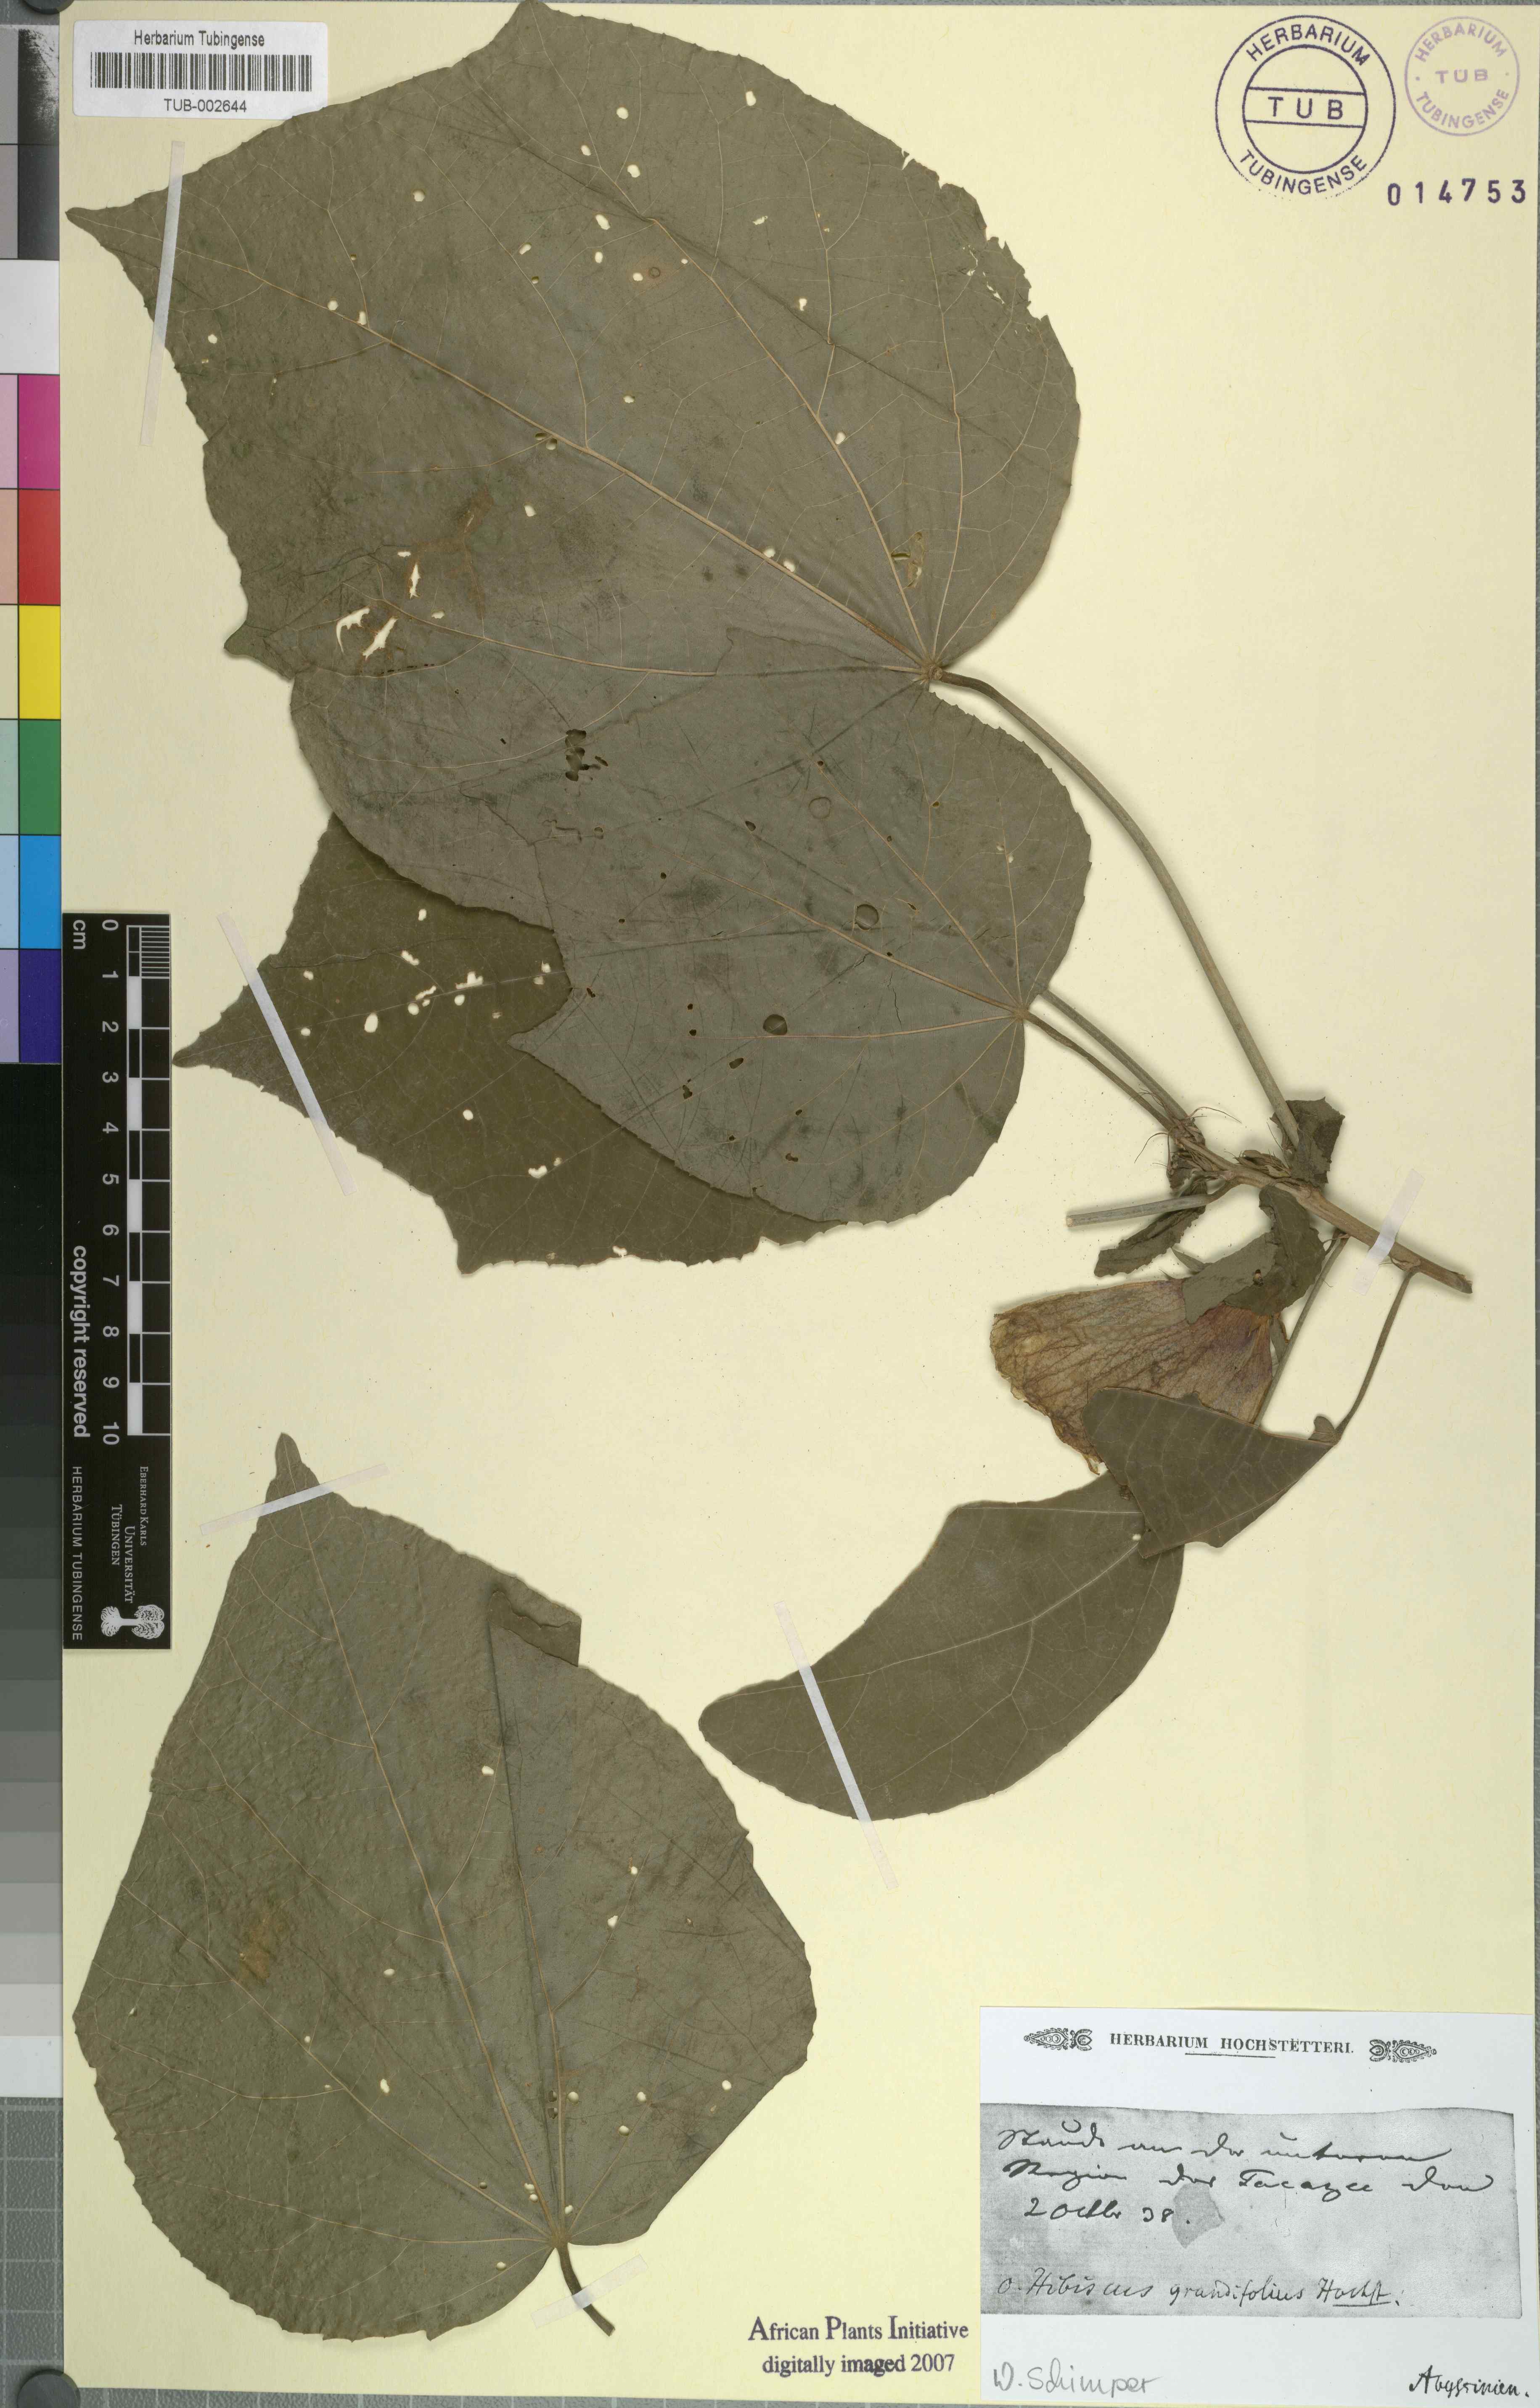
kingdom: Plantae
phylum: Tracheophyta
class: Magnoliopsida
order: Malvales
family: Malvaceae
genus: Hibiscus
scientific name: Hibiscus calyphyllus
